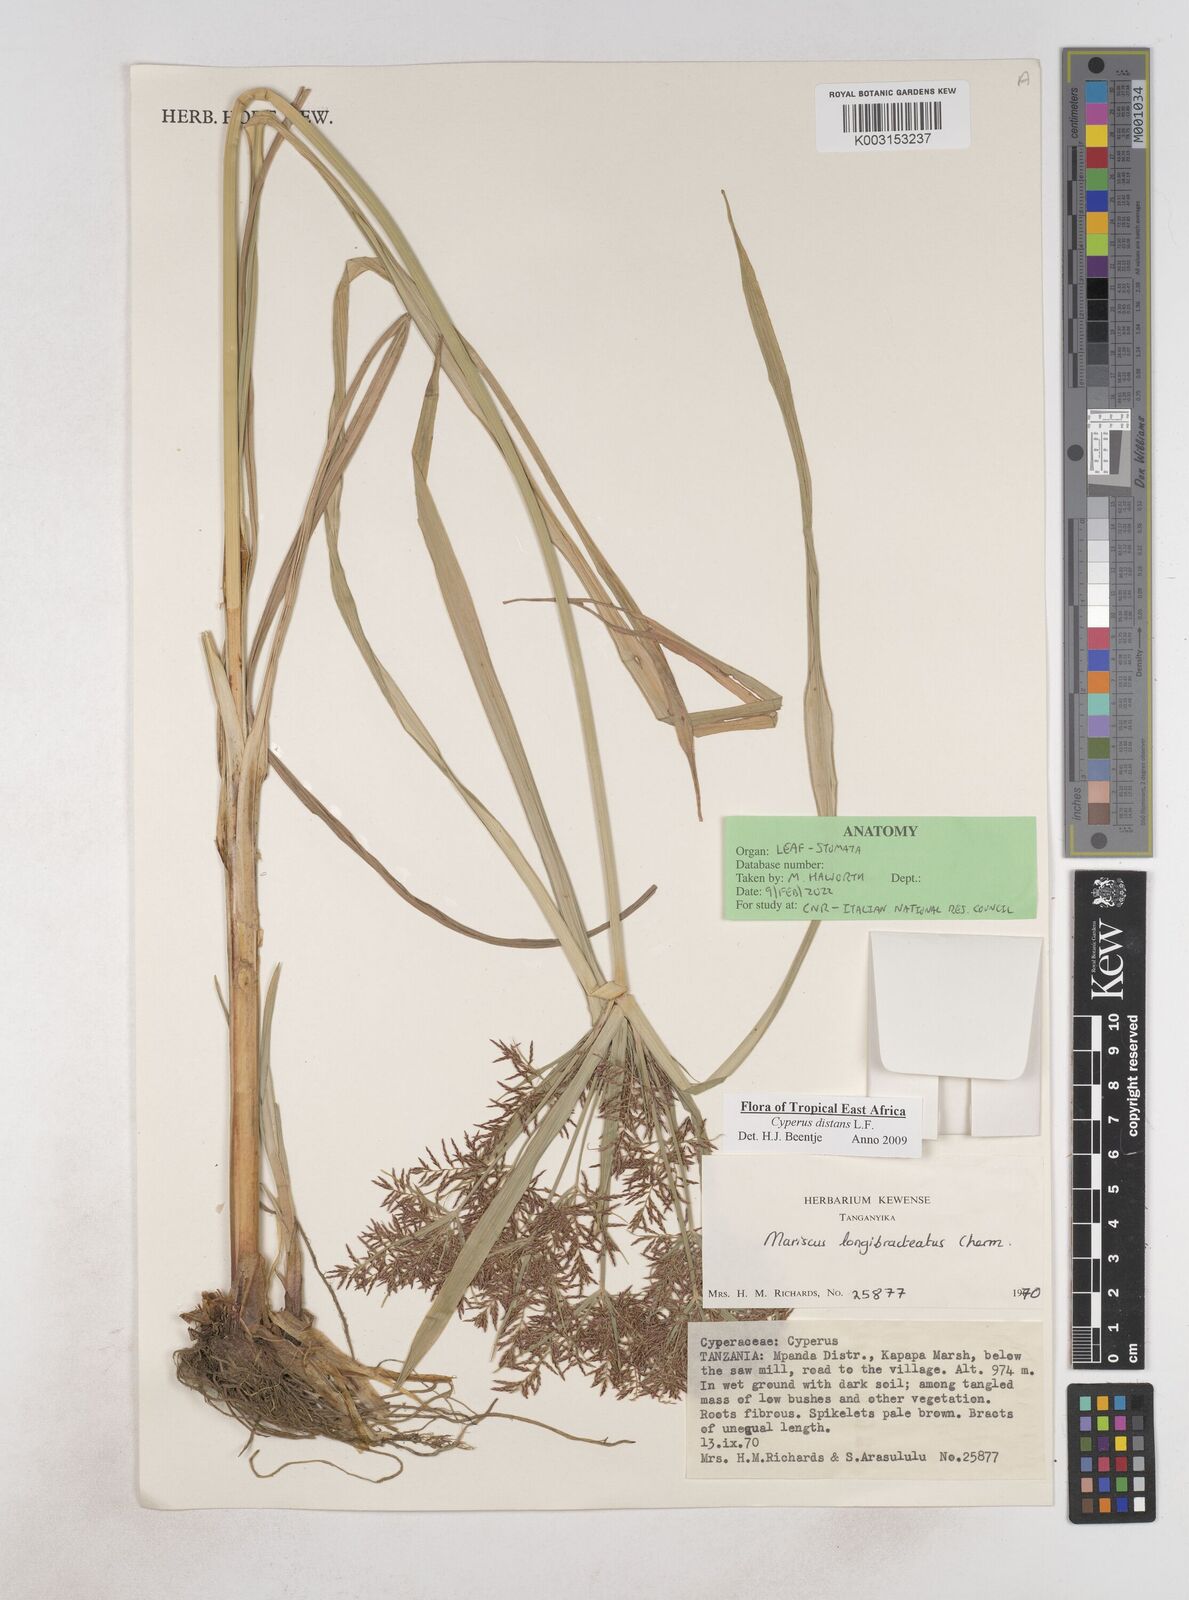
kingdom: Plantae
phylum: Tracheophyta
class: Liliopsida
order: Poales
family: Cyperaceae
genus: Cyperus
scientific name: Cyperus distans
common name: Slender cyperus
